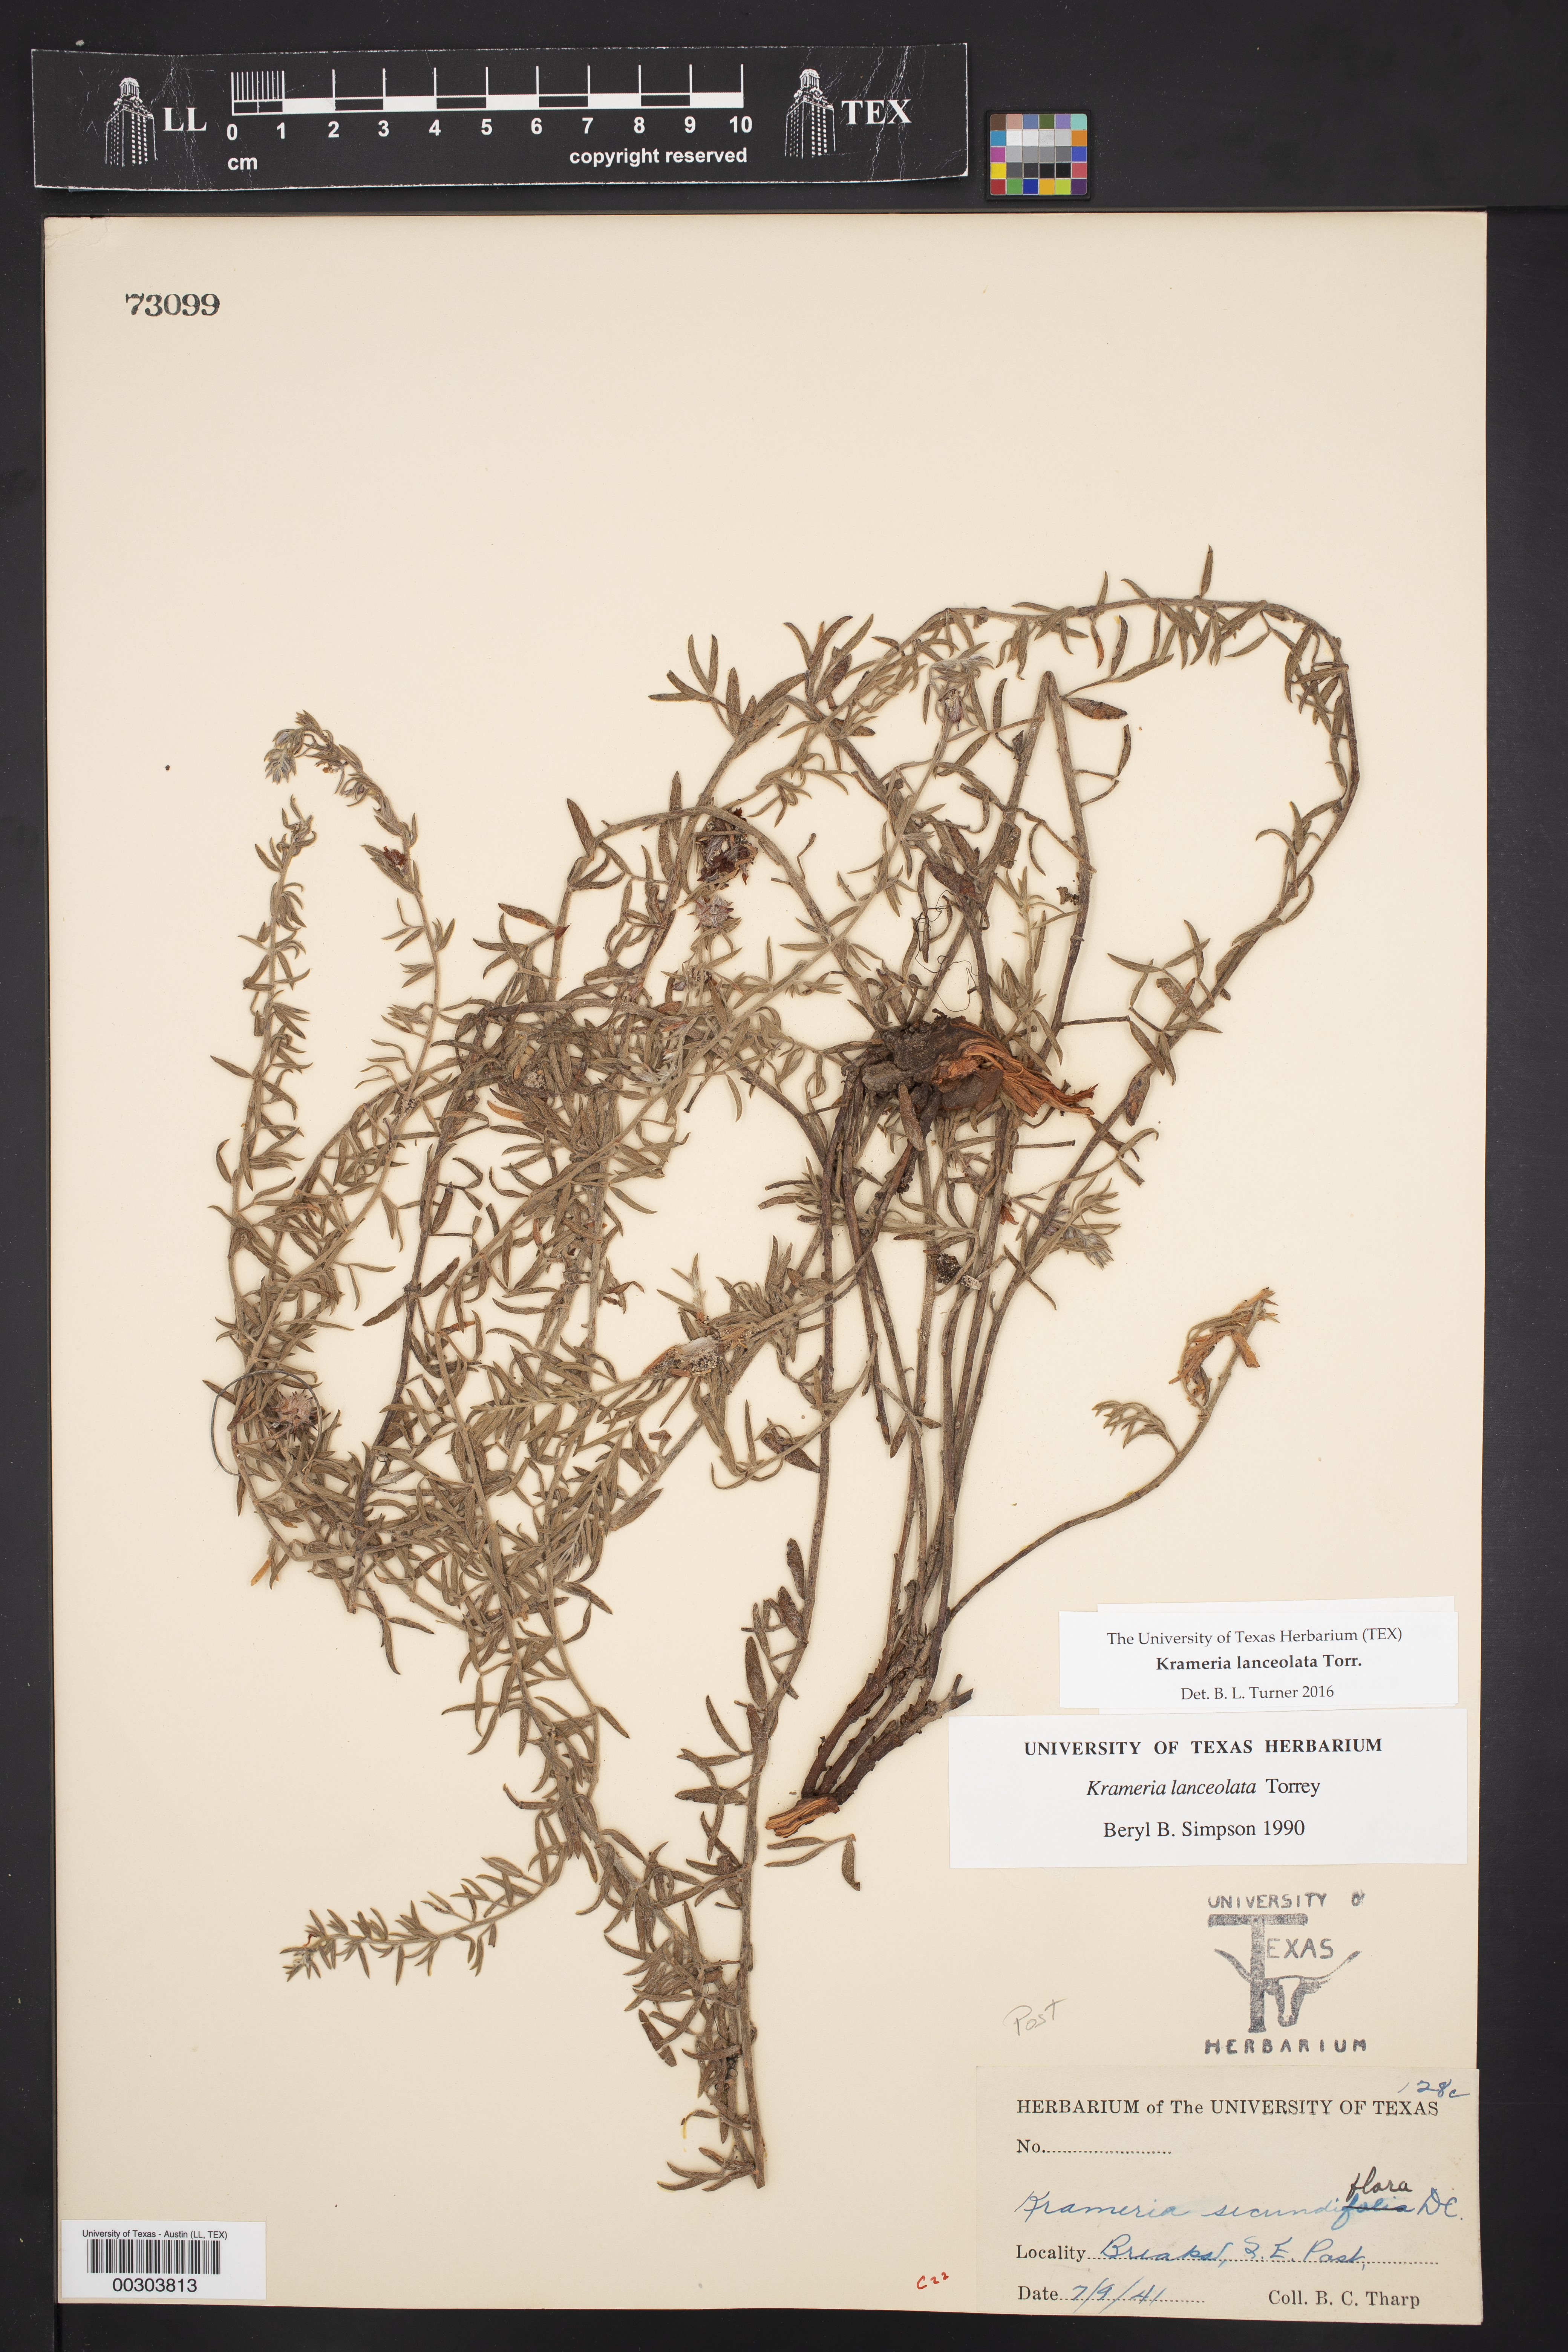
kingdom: Plantae
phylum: Tracheophyta
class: Magnoliopsida
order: Zygophyllales
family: Krameriaceae
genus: Krameria
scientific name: Krameria lanceolata
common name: Ratany
